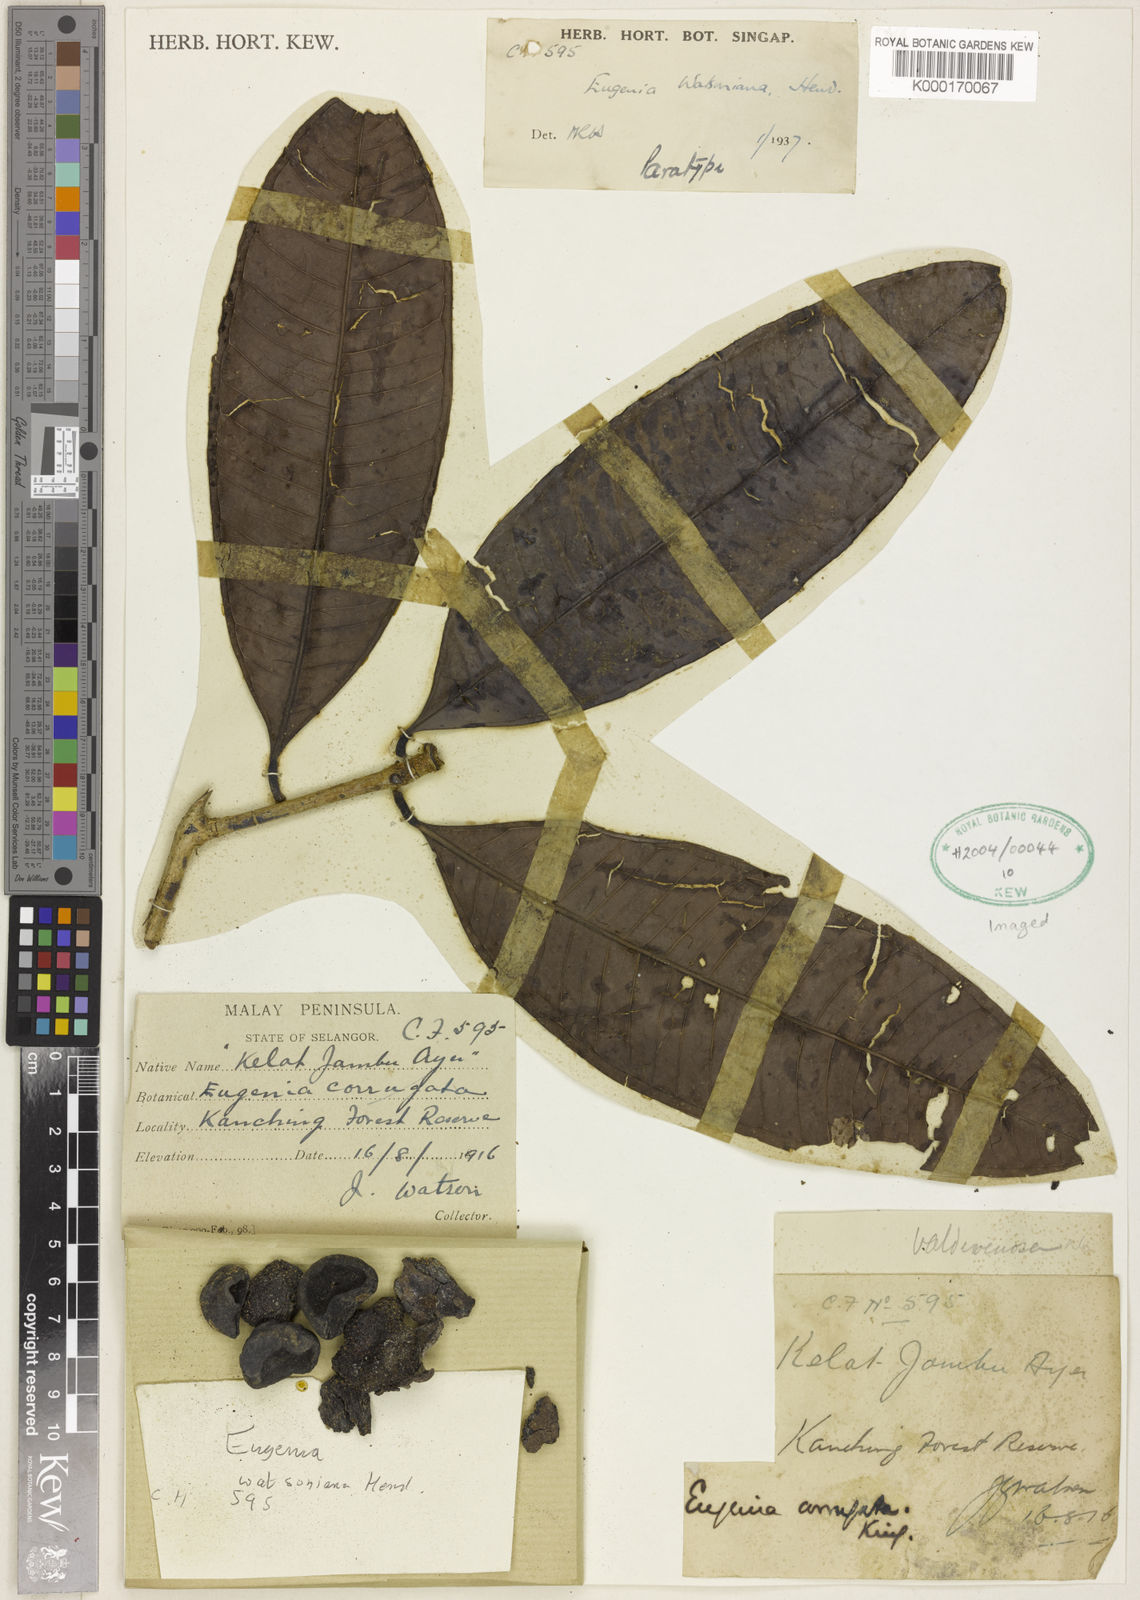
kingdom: Plantae
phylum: Tracheophyta
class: Magnoliopsida
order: Myrtales
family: Myrtaceae
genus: Syzygium
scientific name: Syzygium watsonianum
